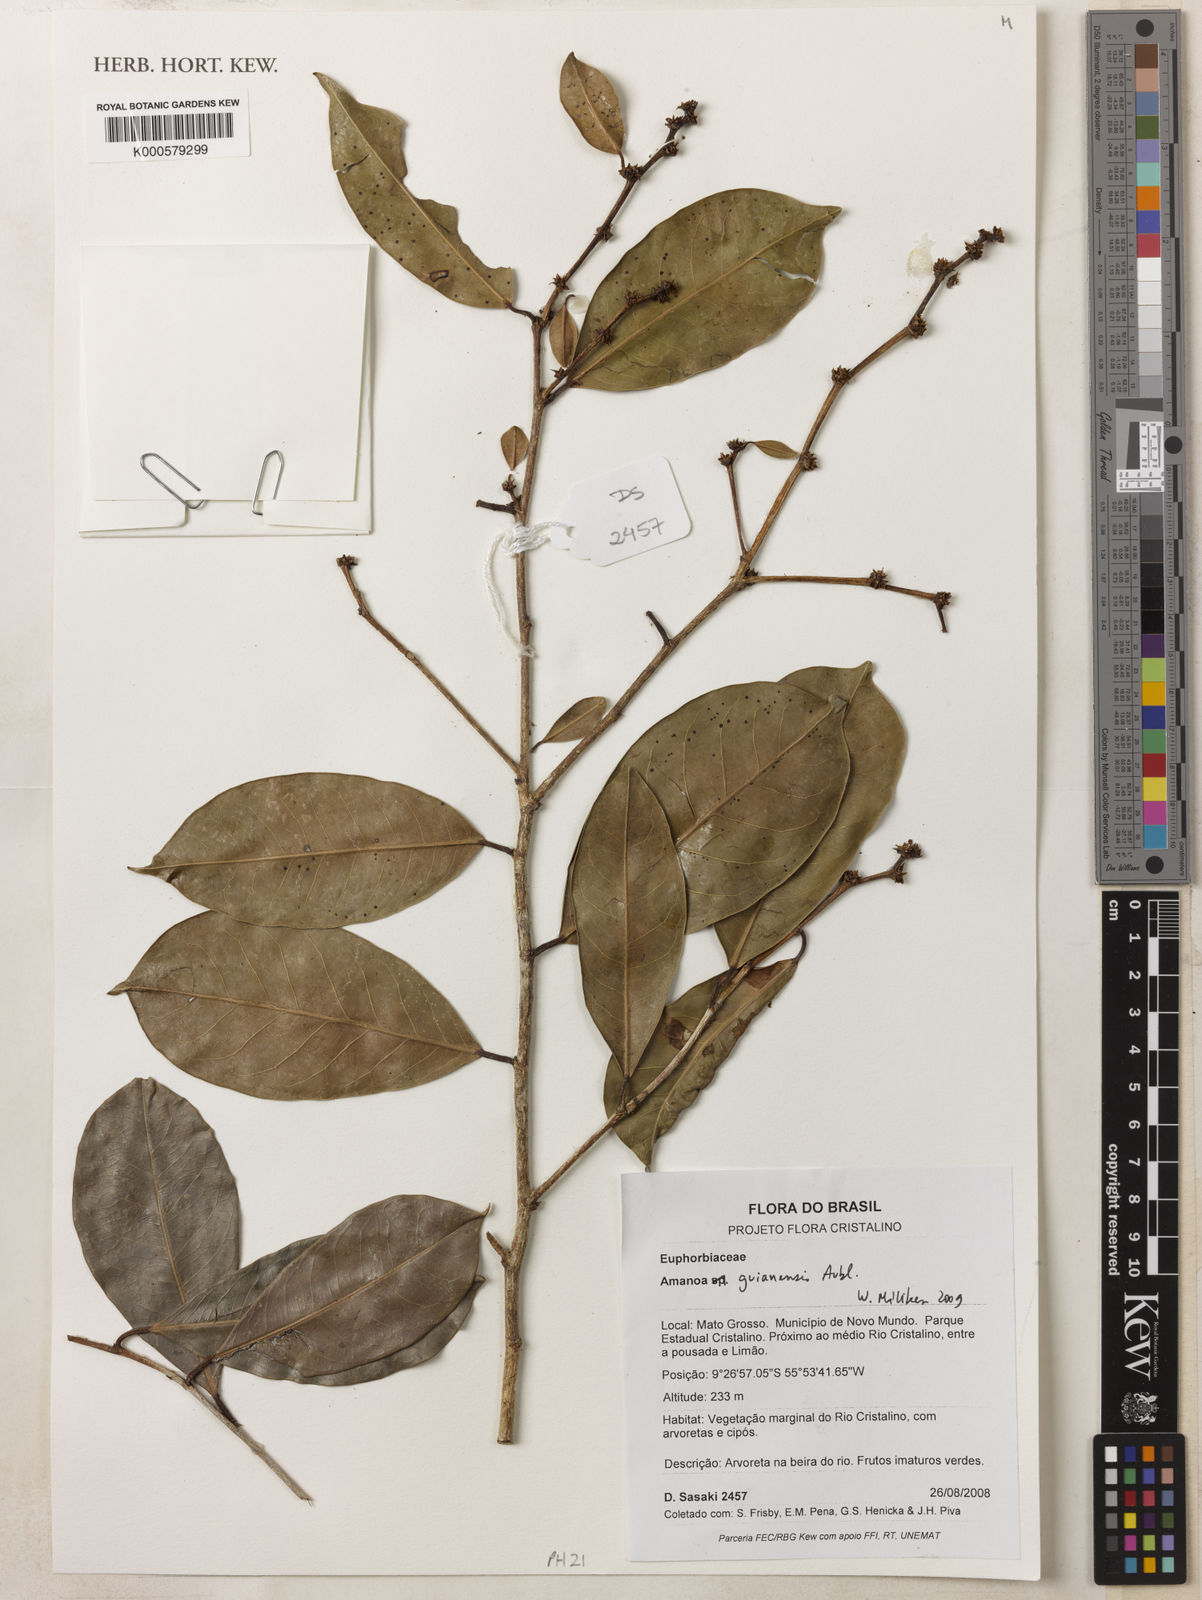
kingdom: Plantae
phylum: Tracheophyta
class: Magnoliopsida
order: Malpighiales
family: Phyllanthaceae
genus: Amanoa
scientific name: Amanoa guianensis
